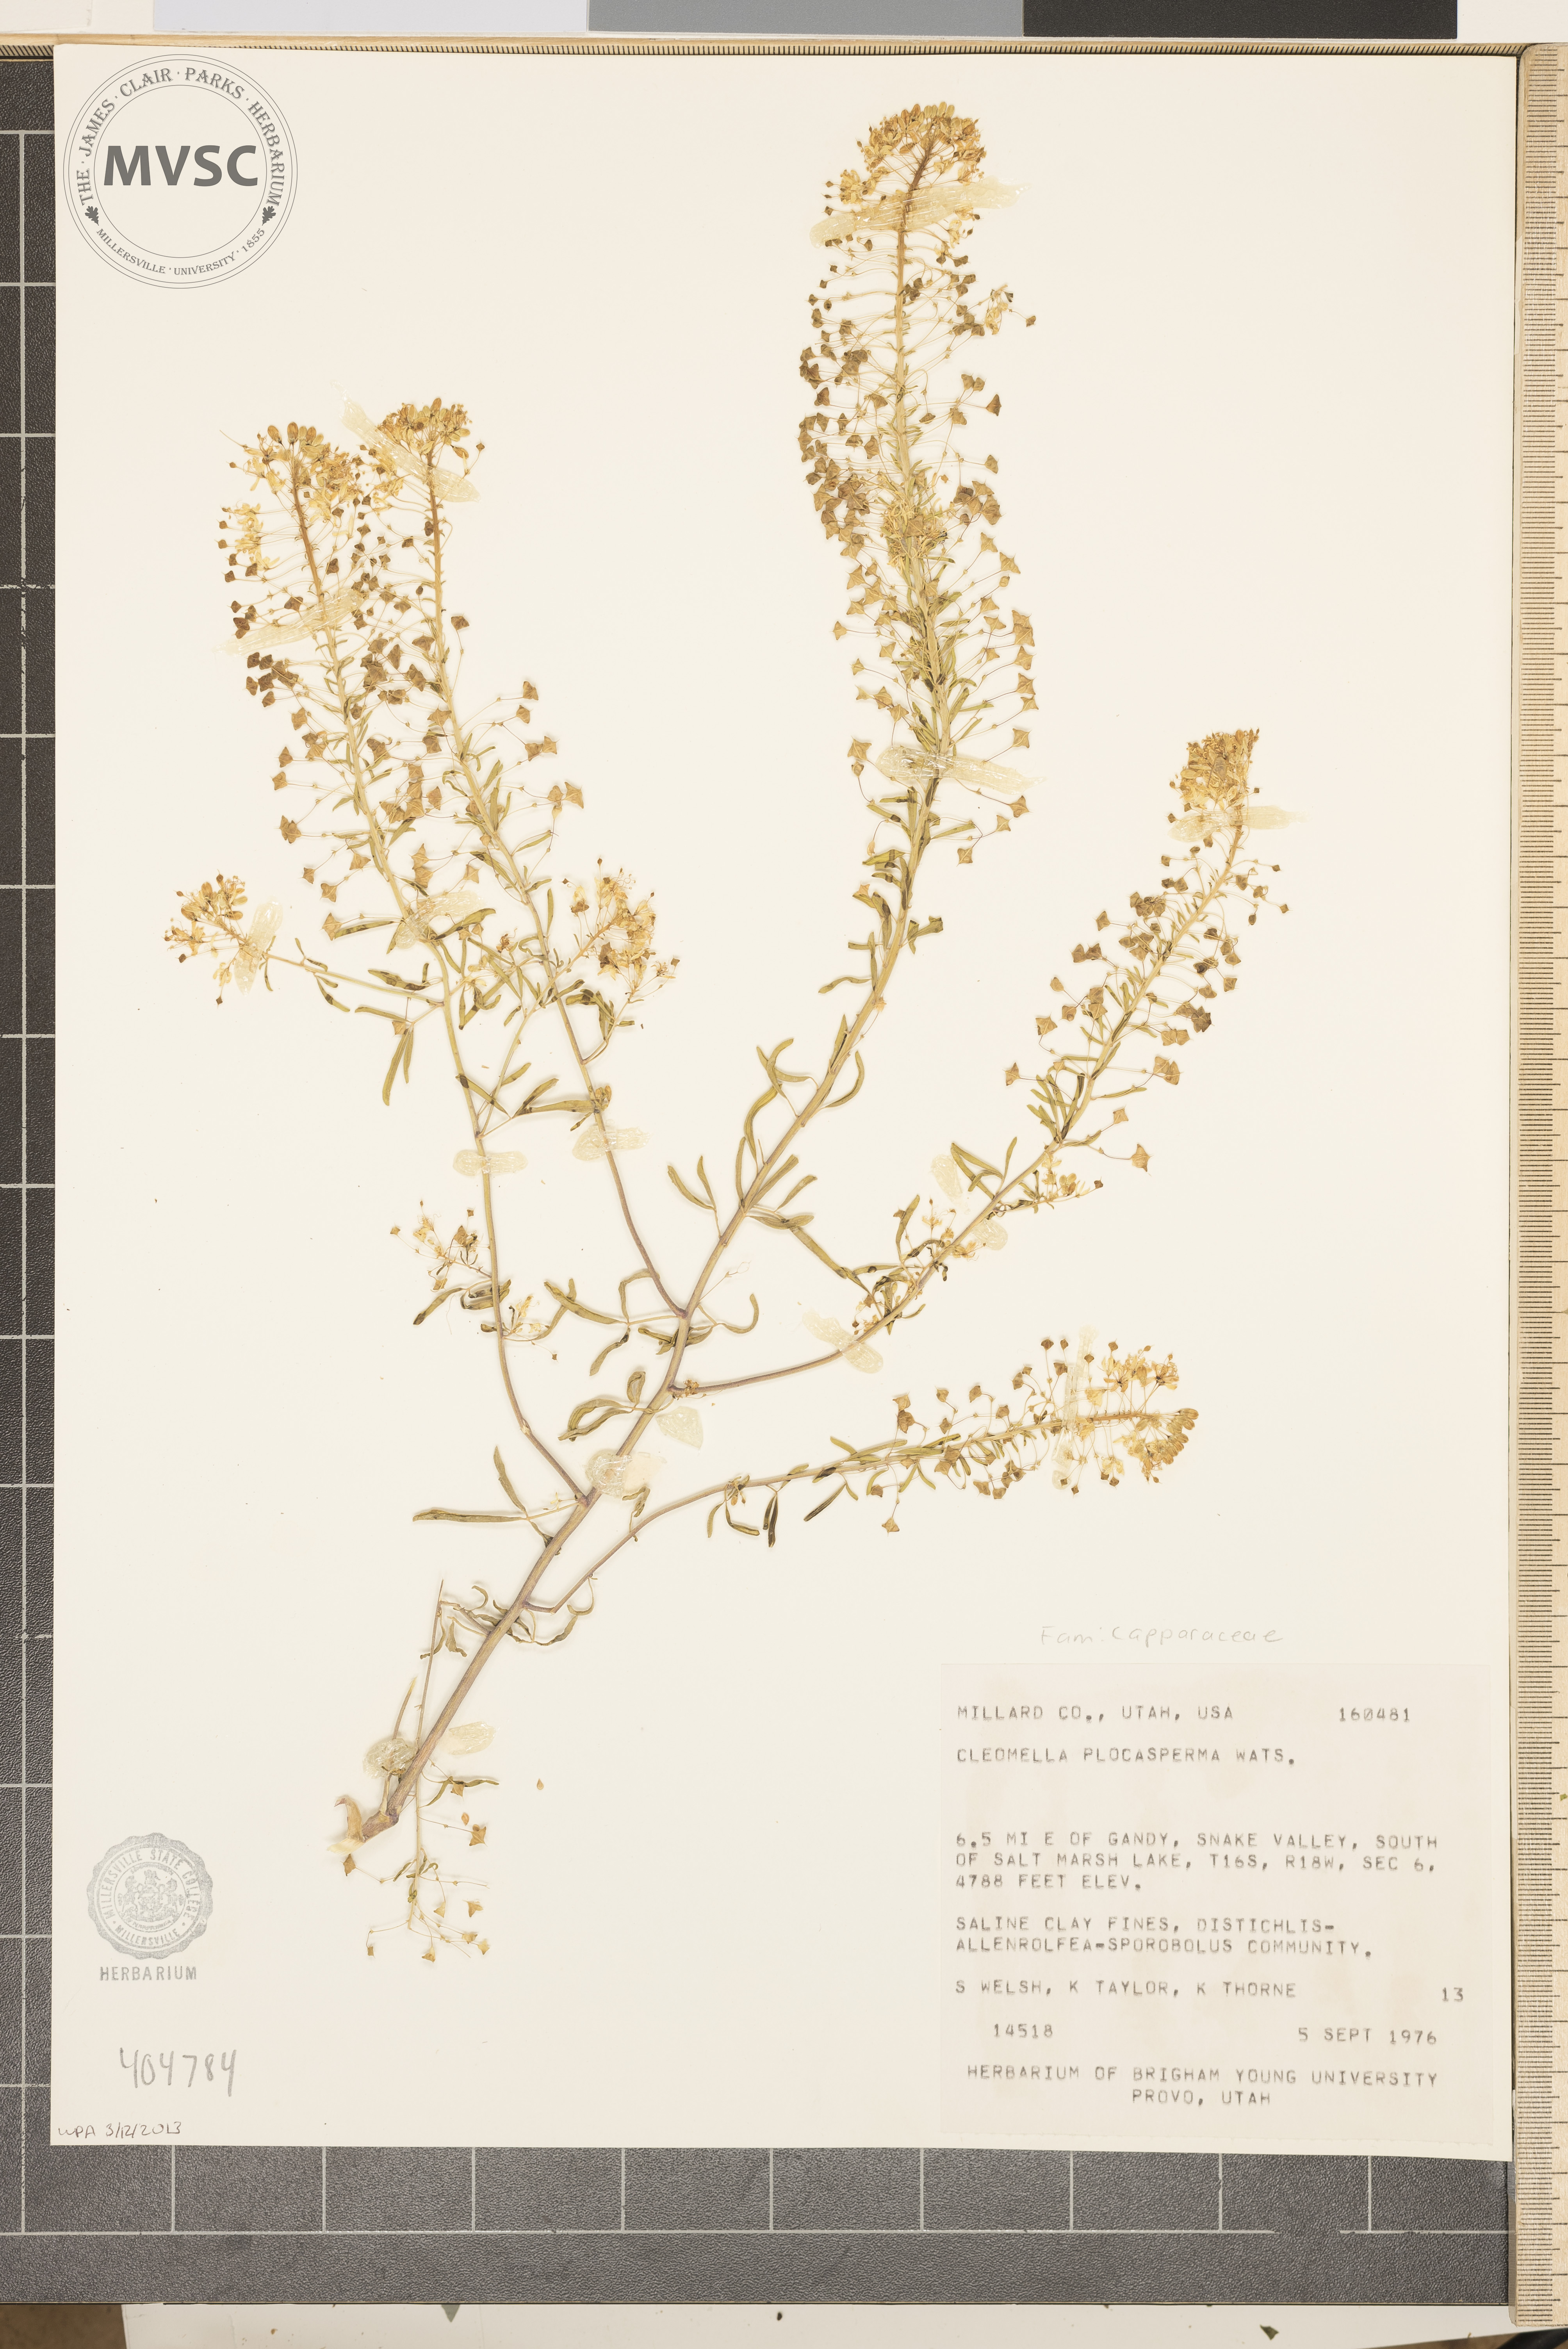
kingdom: Plantae
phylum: Tracheophyta
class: Magnoliopsida
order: Brassicales
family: Cleomaceae
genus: Cleomella
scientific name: Cleomella plocasperma
